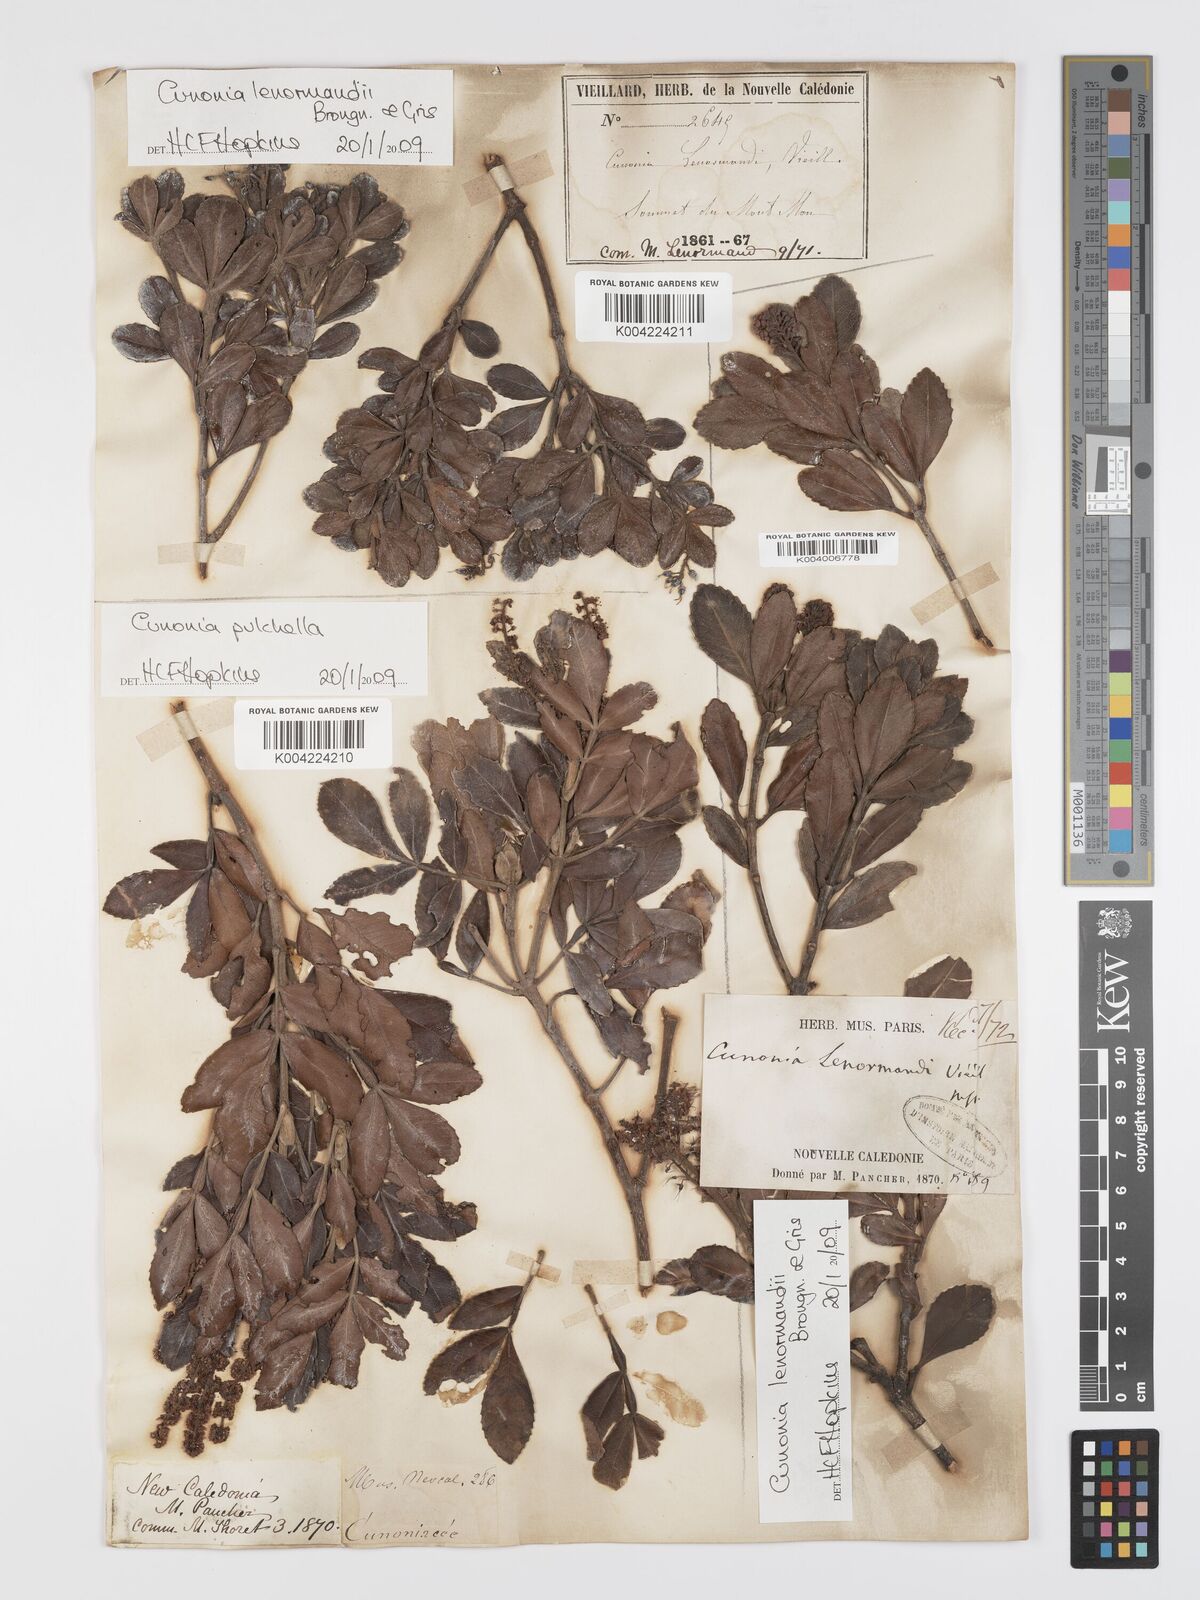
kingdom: Plantae
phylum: Tracheophyta
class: Magnoliopsida
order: Oxalidales
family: Cunoniaceae
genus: Cunonia
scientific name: Cunonia lenormandii
